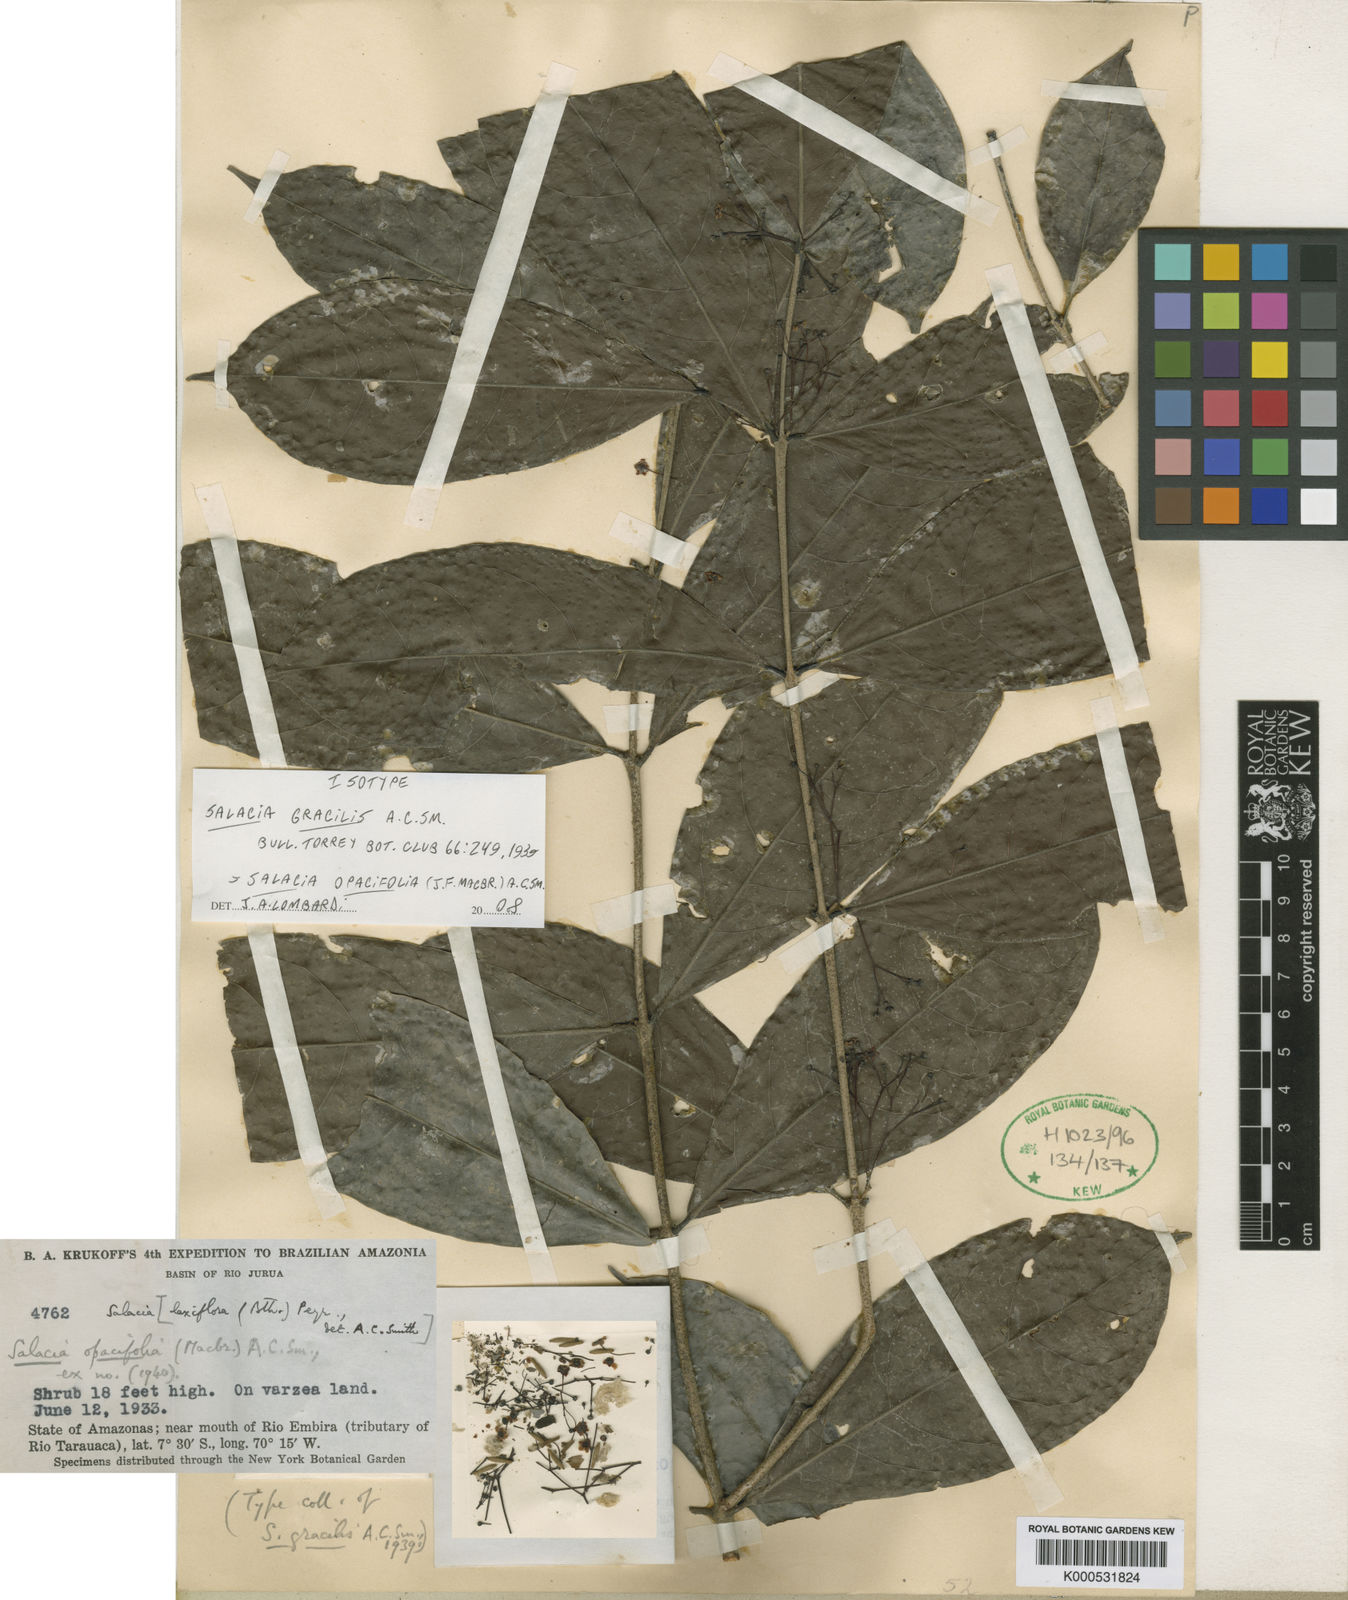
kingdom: Plantae
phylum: Tracheophyta
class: Magnoliopsida
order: Celastrales
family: Celastraceae
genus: Salacia
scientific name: Salacia opacifolia
